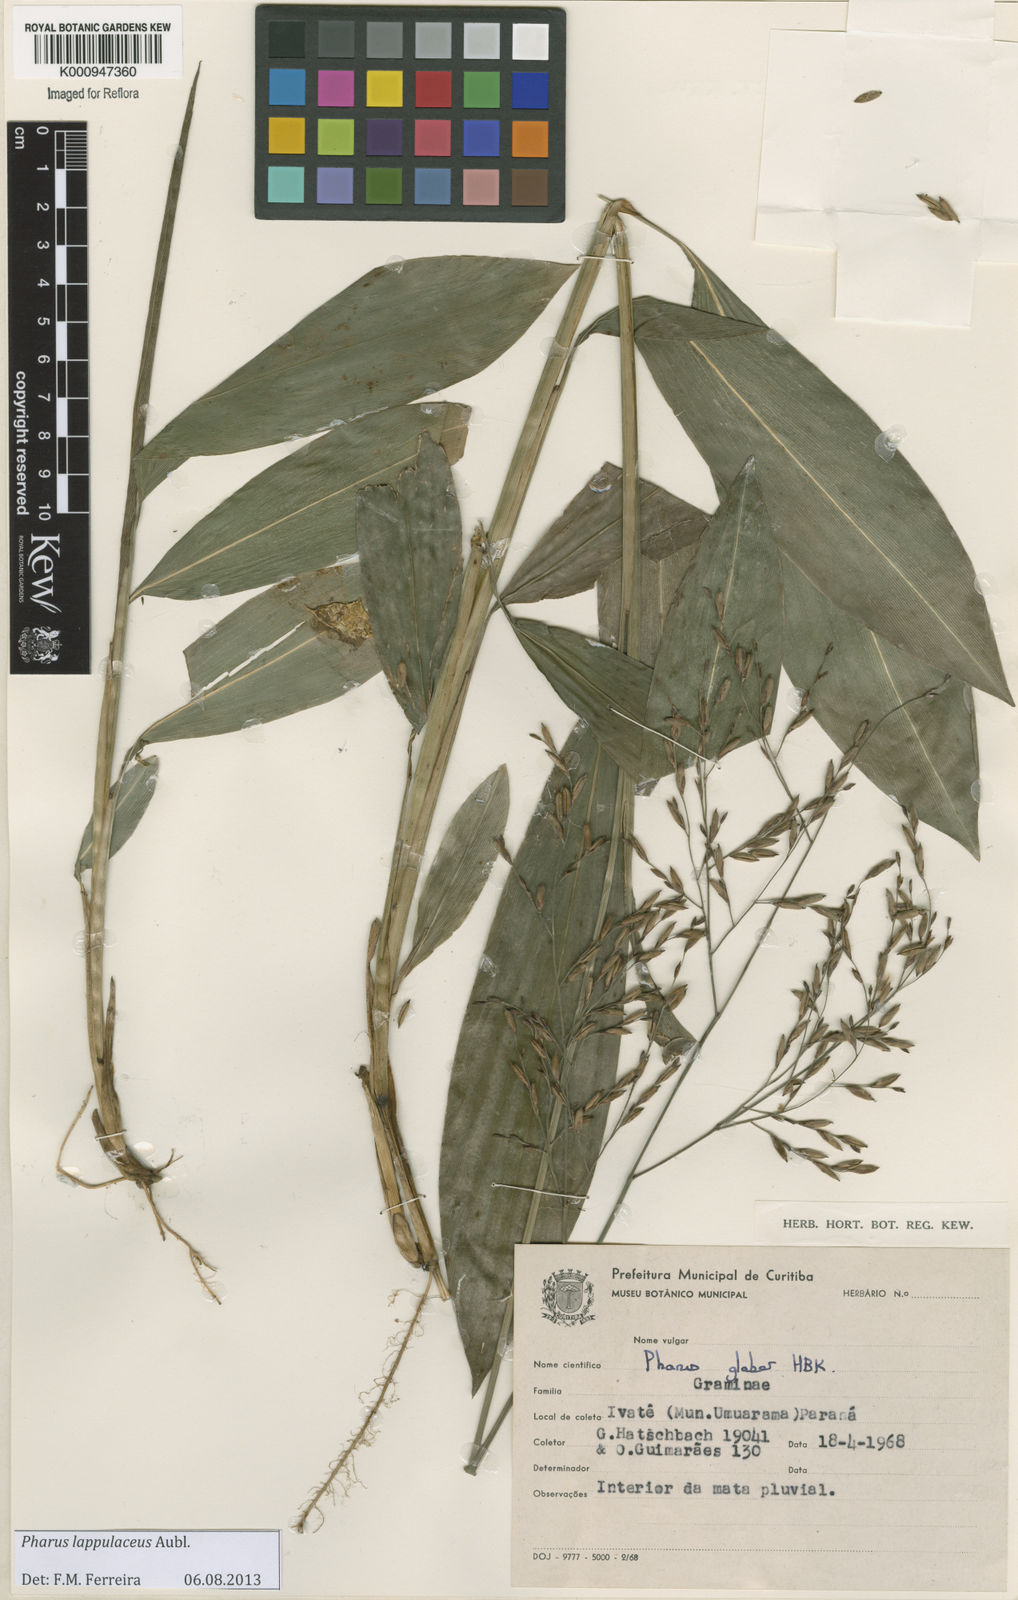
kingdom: Plantae
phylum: Tracheophyta
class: Liliopsida
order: Poales
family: Poaceae
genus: Pharus
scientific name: Pharus lappulaceus
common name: Creeping leafstalk grass
